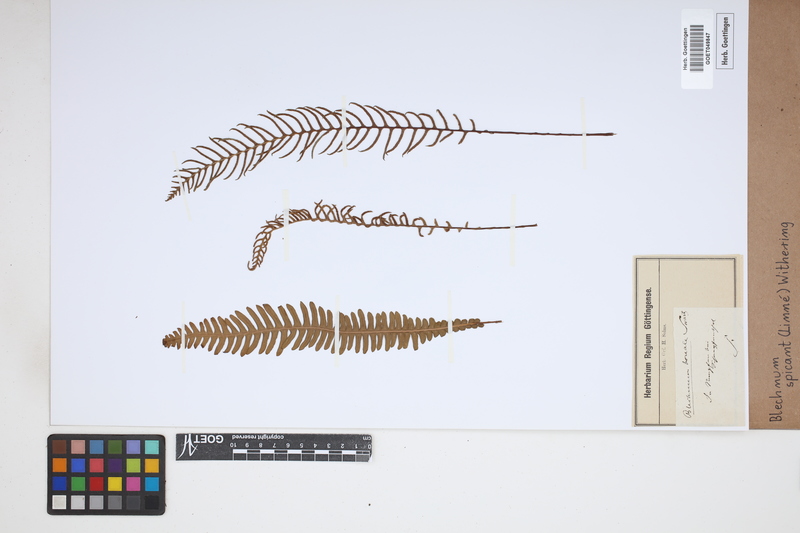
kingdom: Plantae
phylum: Tracheophyta
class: Polypodiopsida
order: Polypodiales
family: Blechnaceae
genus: Struthiopteris
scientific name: Struthiopteris spicant
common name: Deer fern
